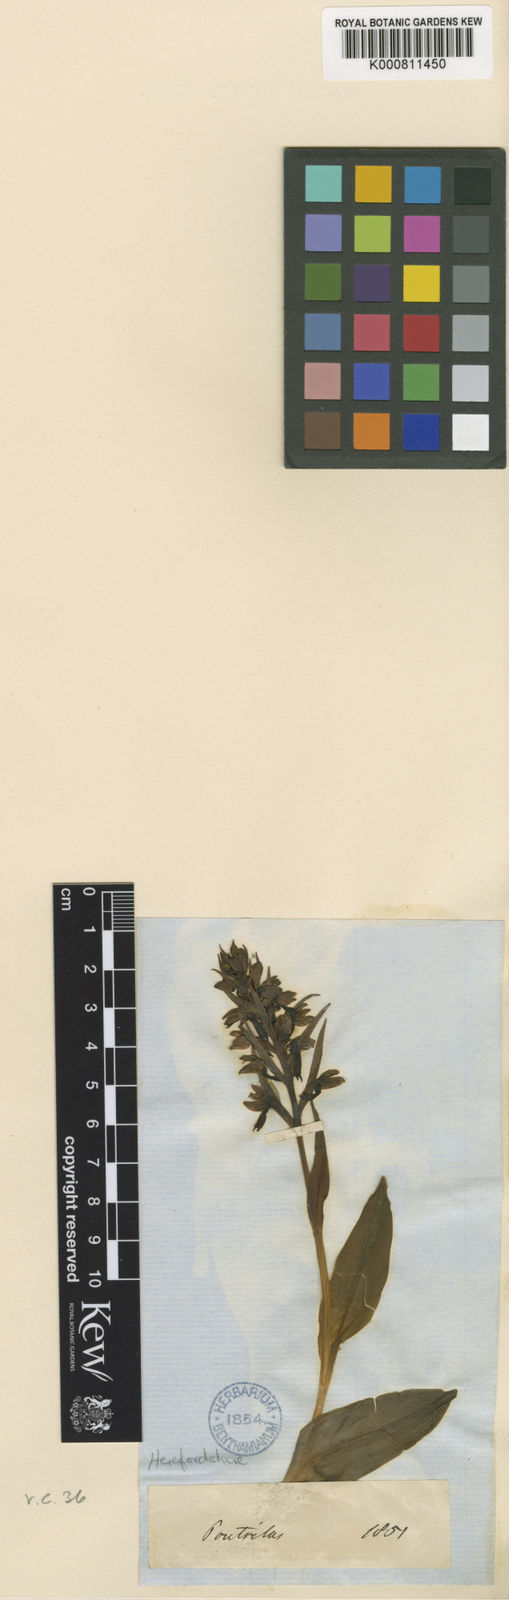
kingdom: Plantae
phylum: Tracheophyta
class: Liliopsida
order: Asparagales
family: Orchidaceae
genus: Dactylorhiza
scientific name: Dactylorhiza viridis
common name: Longbract frog orchid
